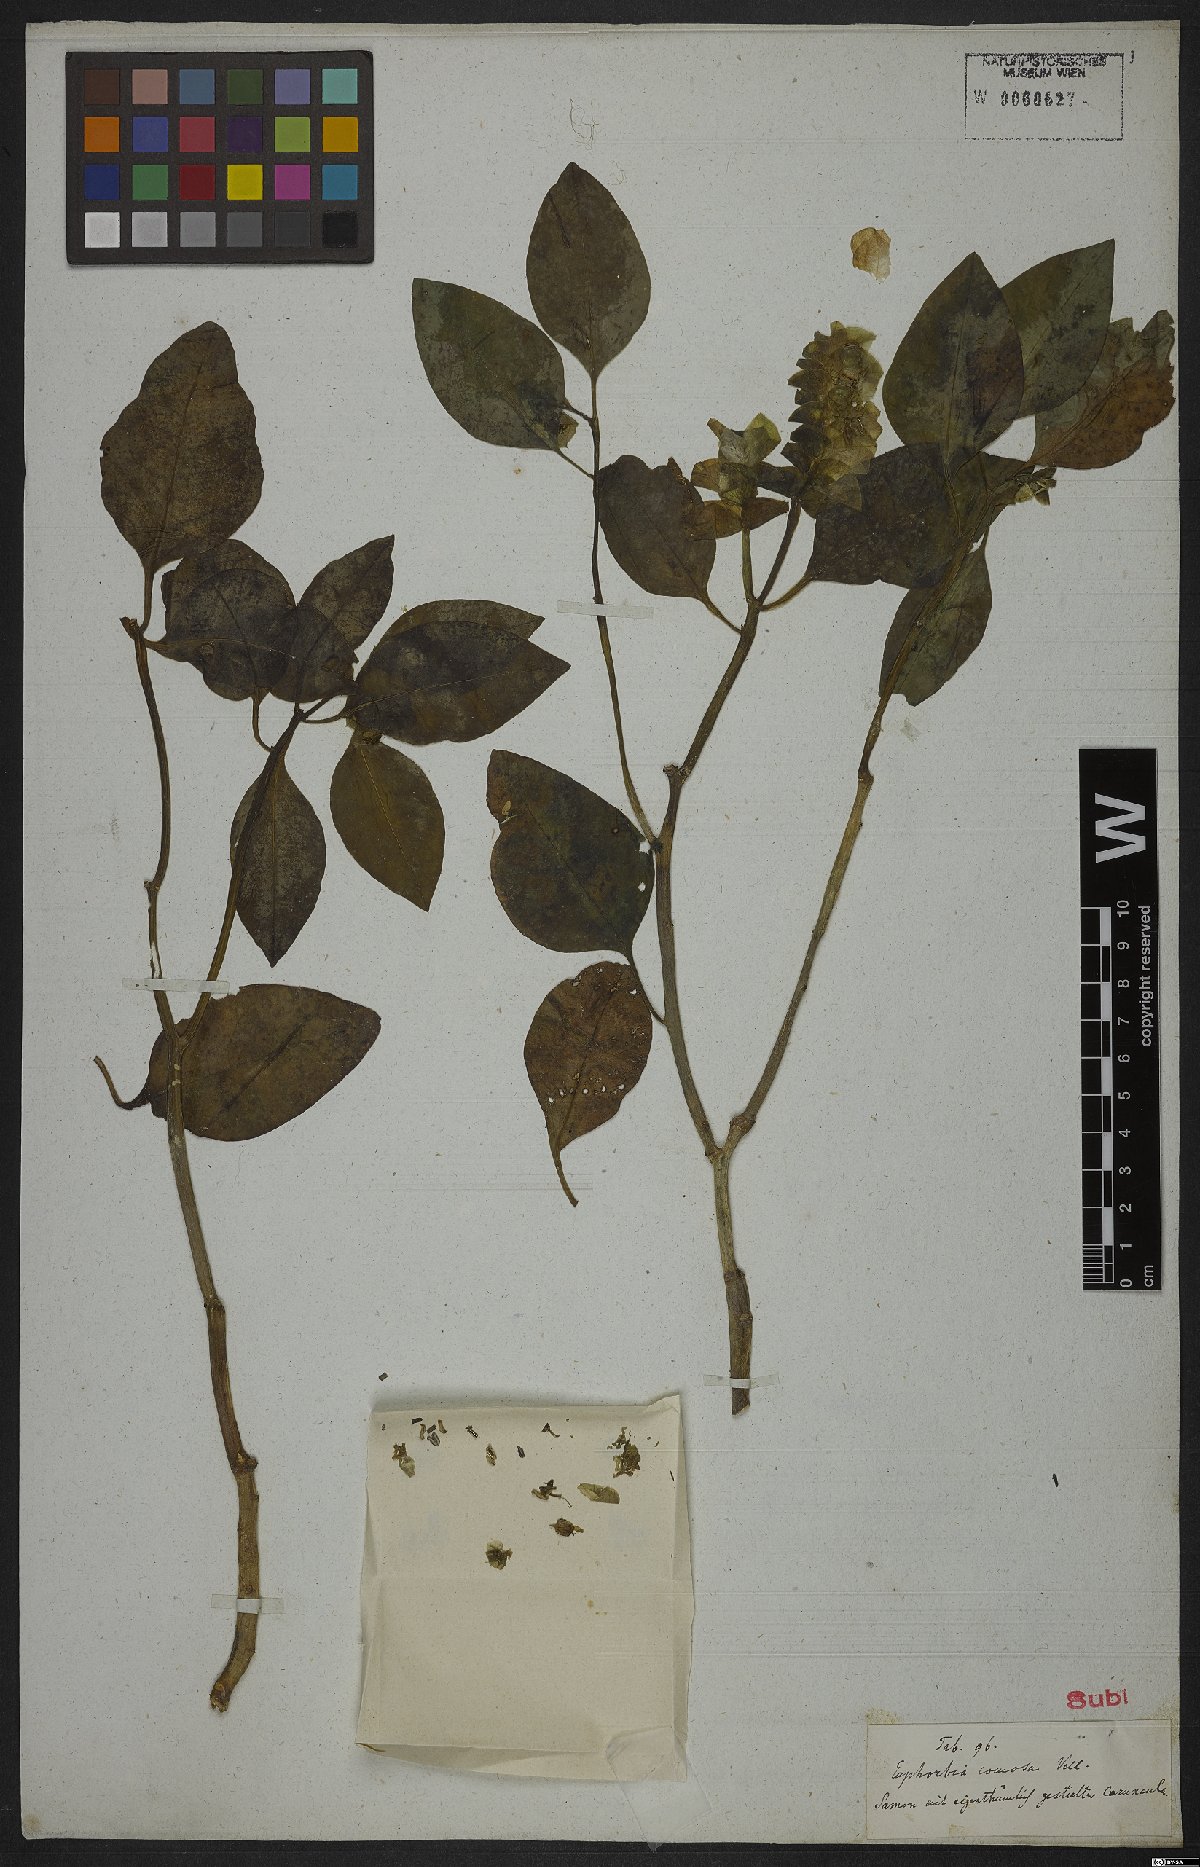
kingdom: Plantae
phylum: Tracheophyta
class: Magnoliopsida
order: Malpighiales
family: Euphorbiaceae
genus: Euphorbia
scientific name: Euphorbia comosa
